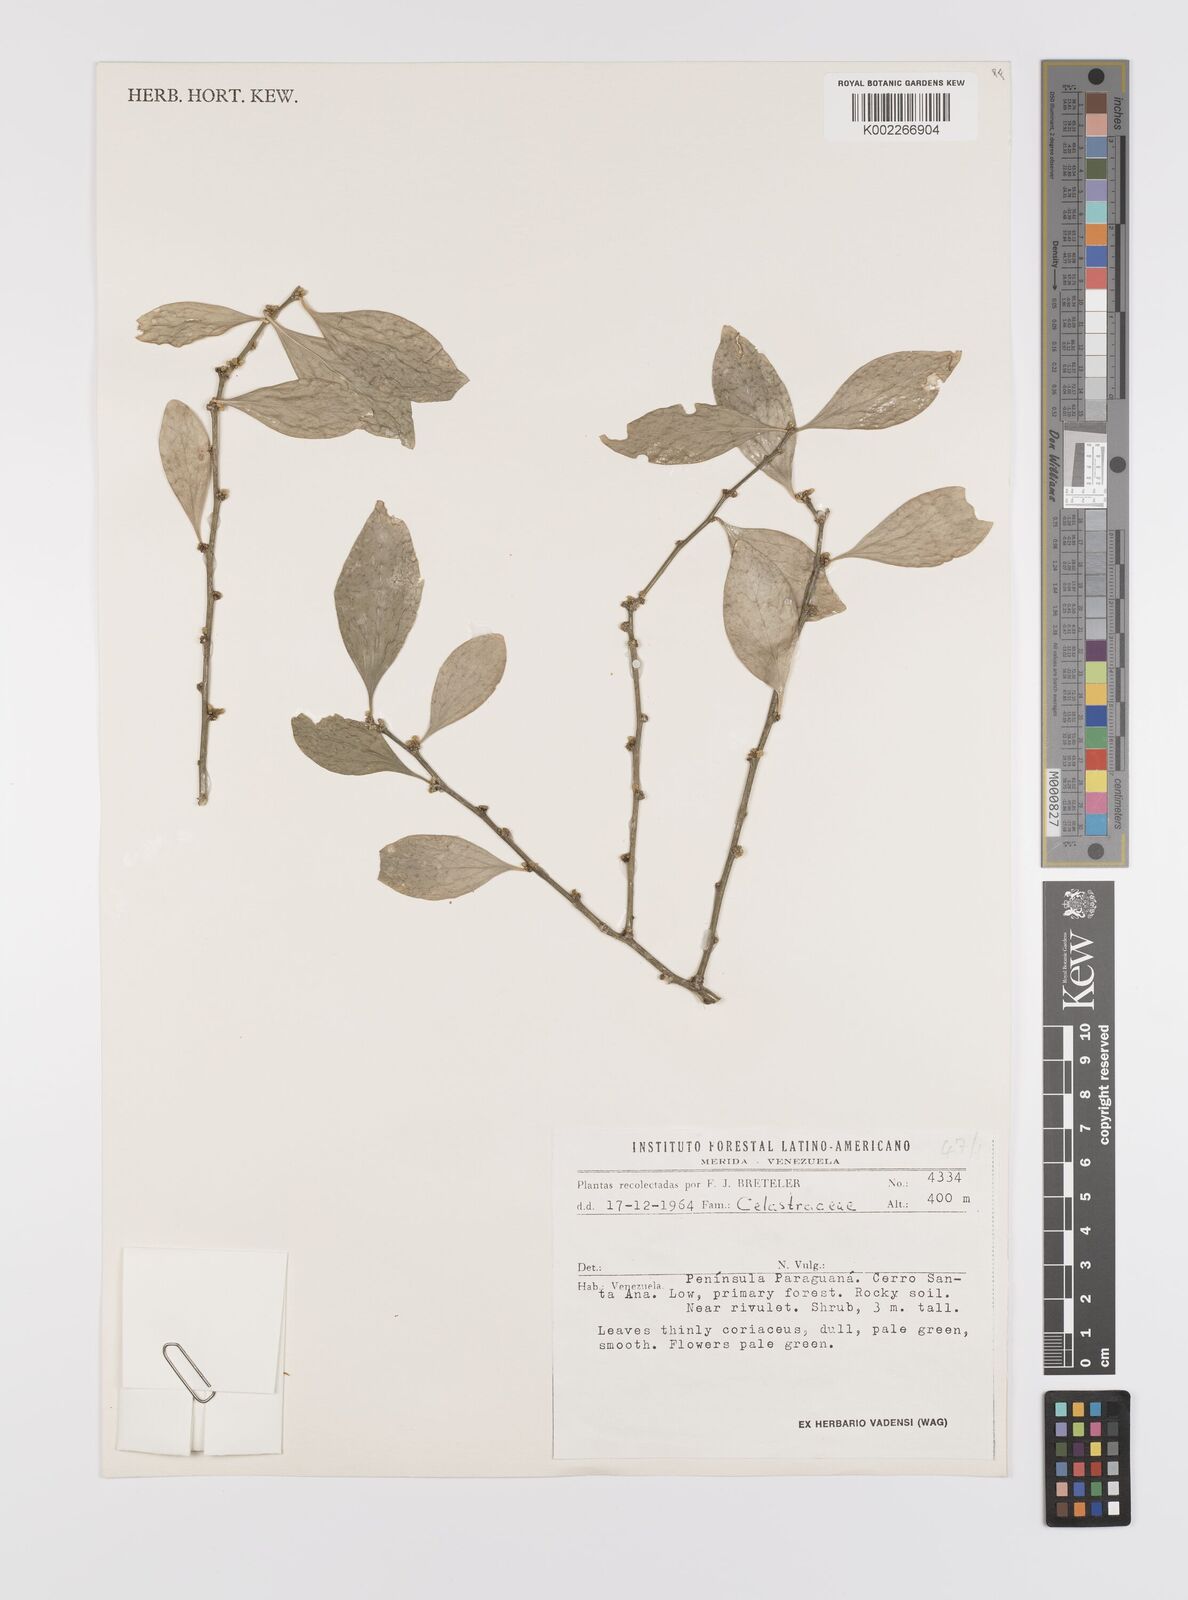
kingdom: Plantae
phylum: Tracheophyta
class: Magnoliopsida
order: Celastrales
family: Celastraceae
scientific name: Celastraceae
